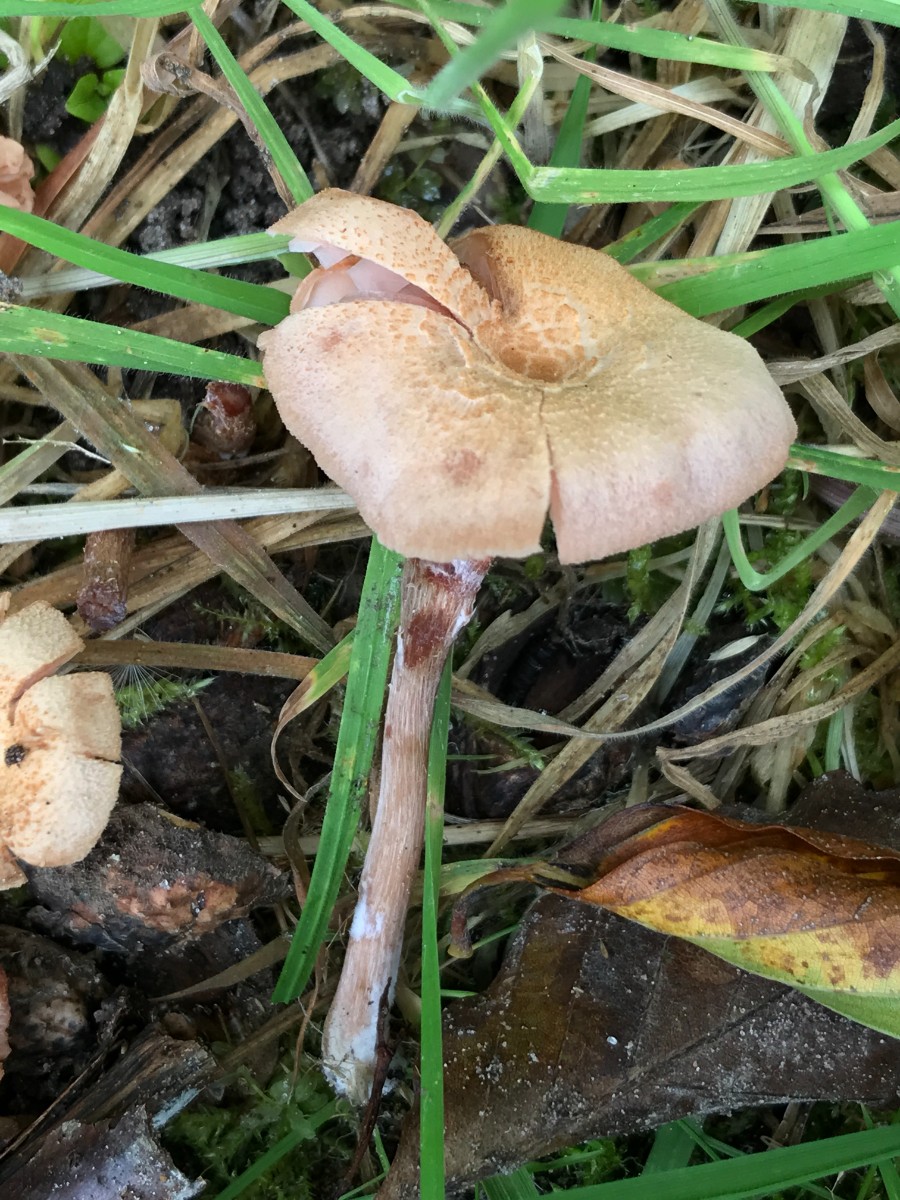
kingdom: Fungi
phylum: Basidiomycota
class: Agaricomycetes
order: Agaricales
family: Hydnangiaceae
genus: Laccaria
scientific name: Laccaria
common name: ametysthat
